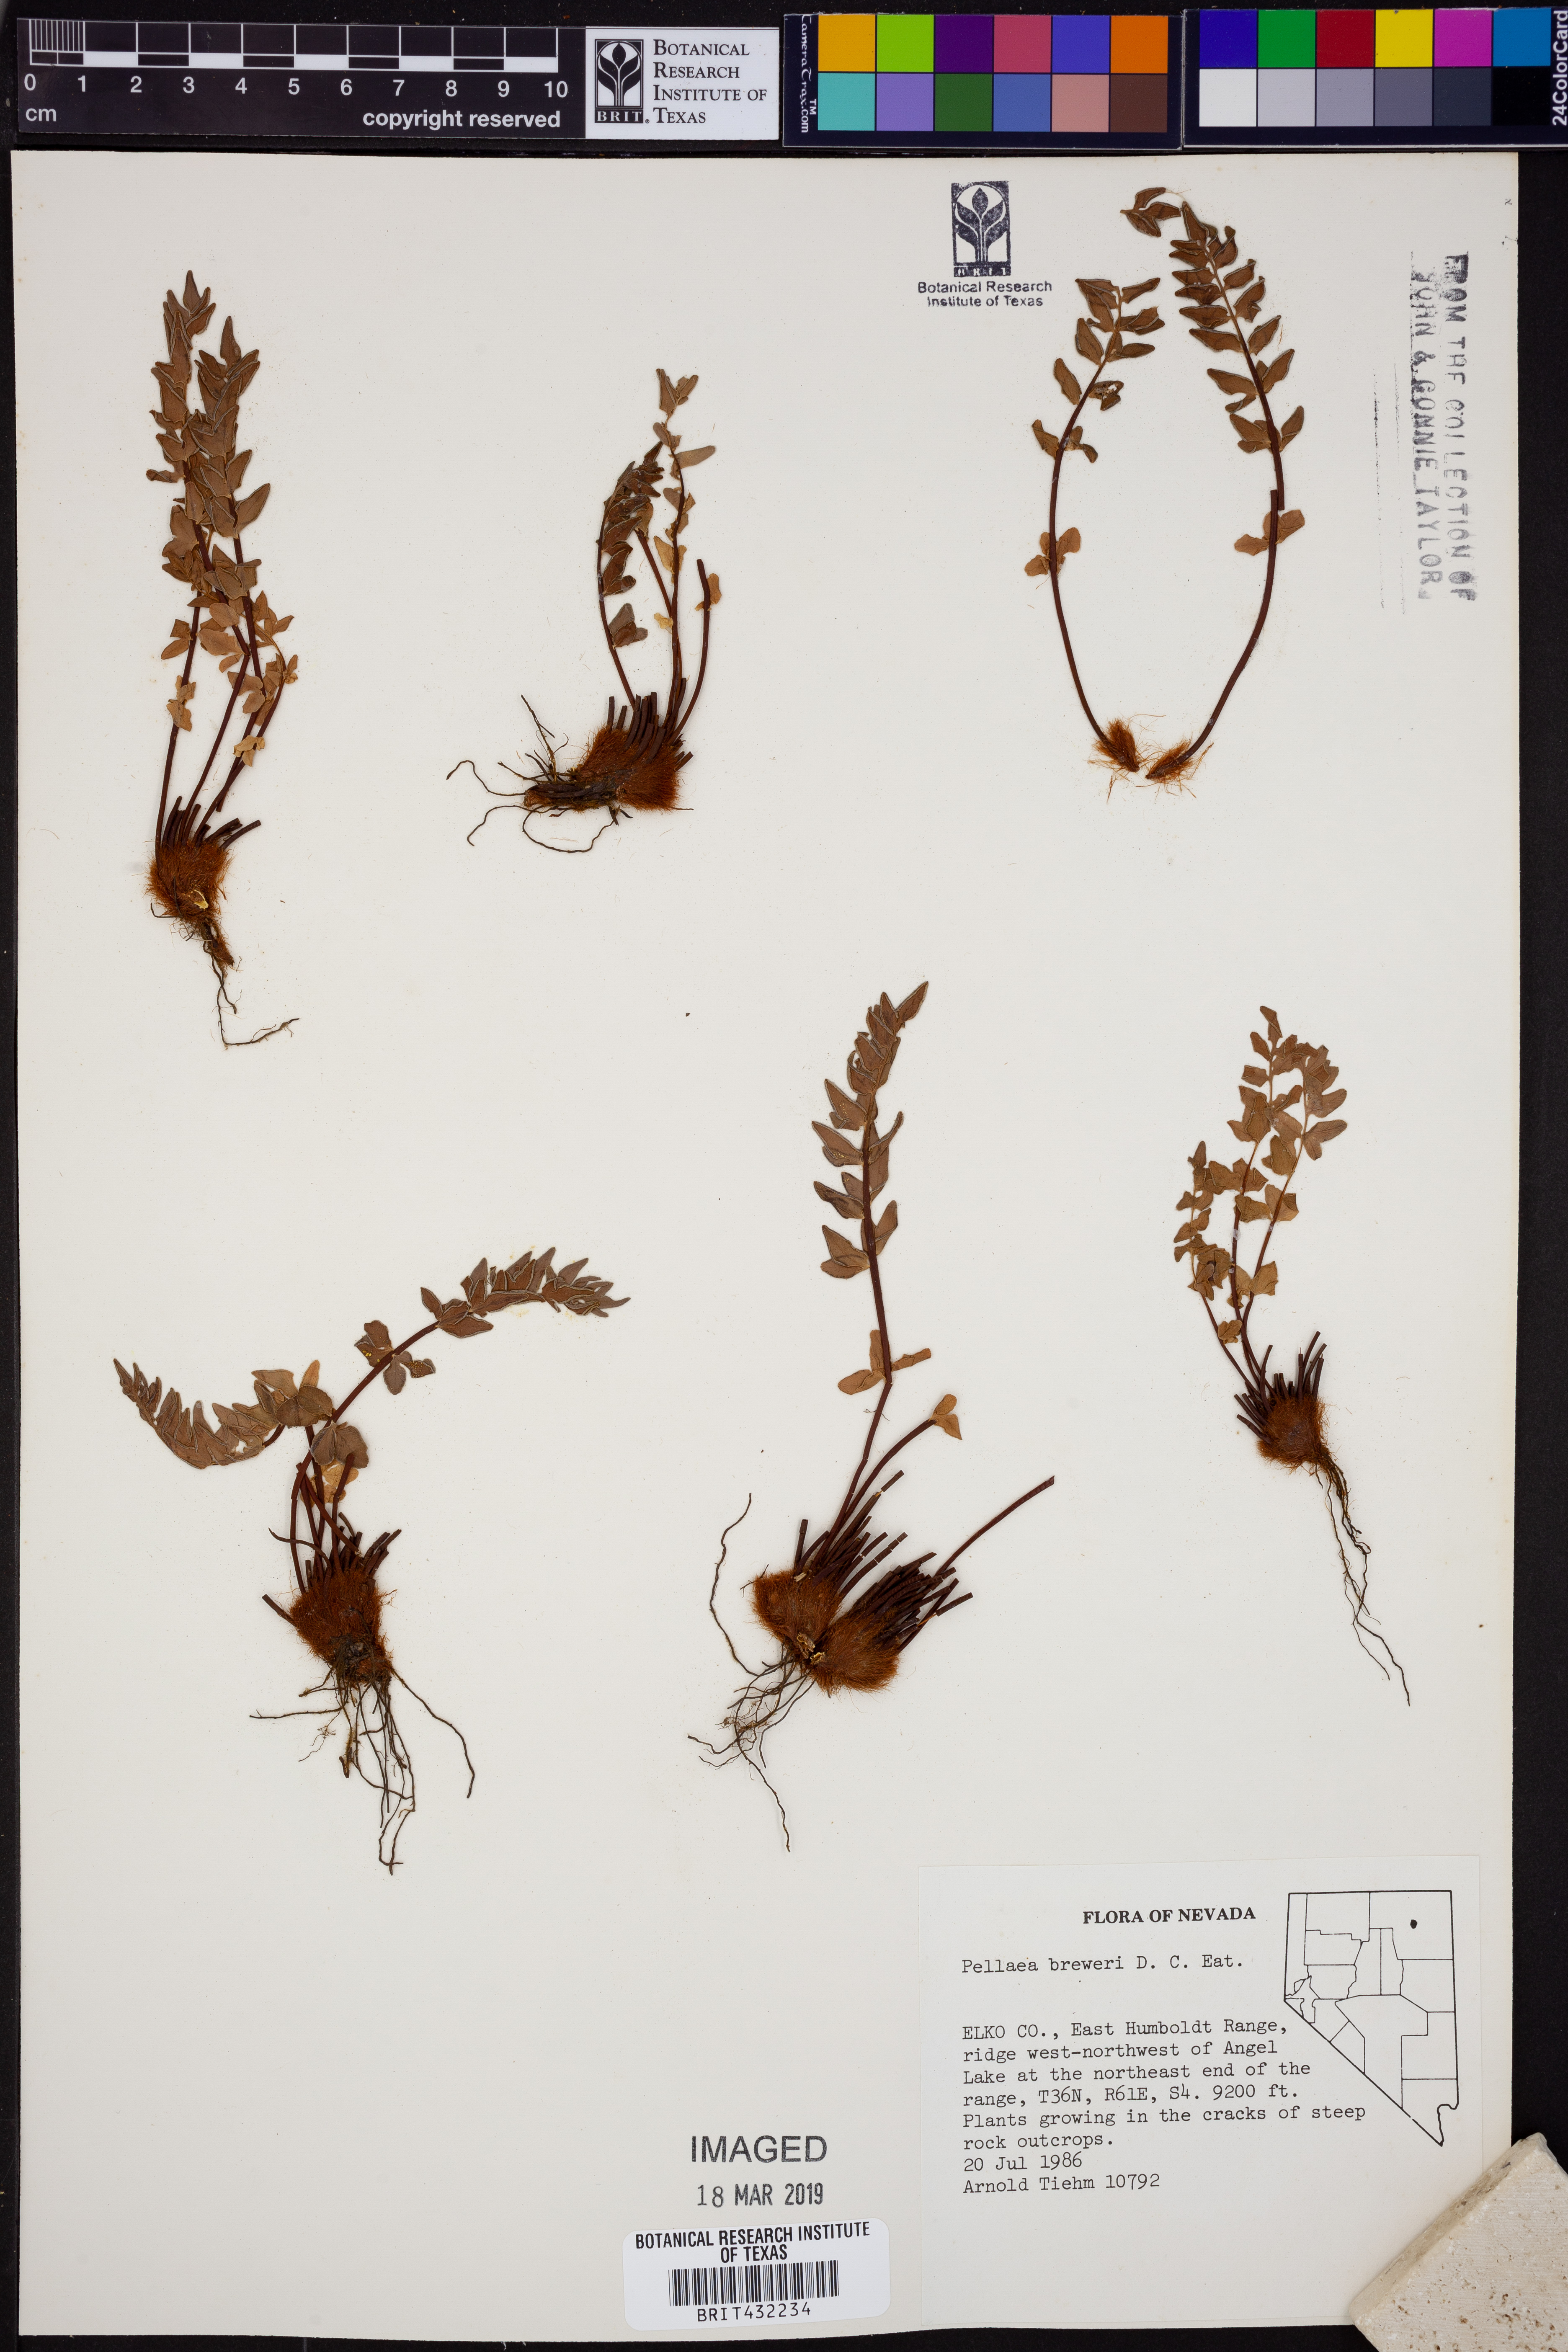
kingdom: Plantae
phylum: Tracheophyta
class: Polypodiopsida
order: Polypodiales
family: Pteridaceae
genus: Pellaea
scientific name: Pellaea breweri
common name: Brewer's cliffbrake
